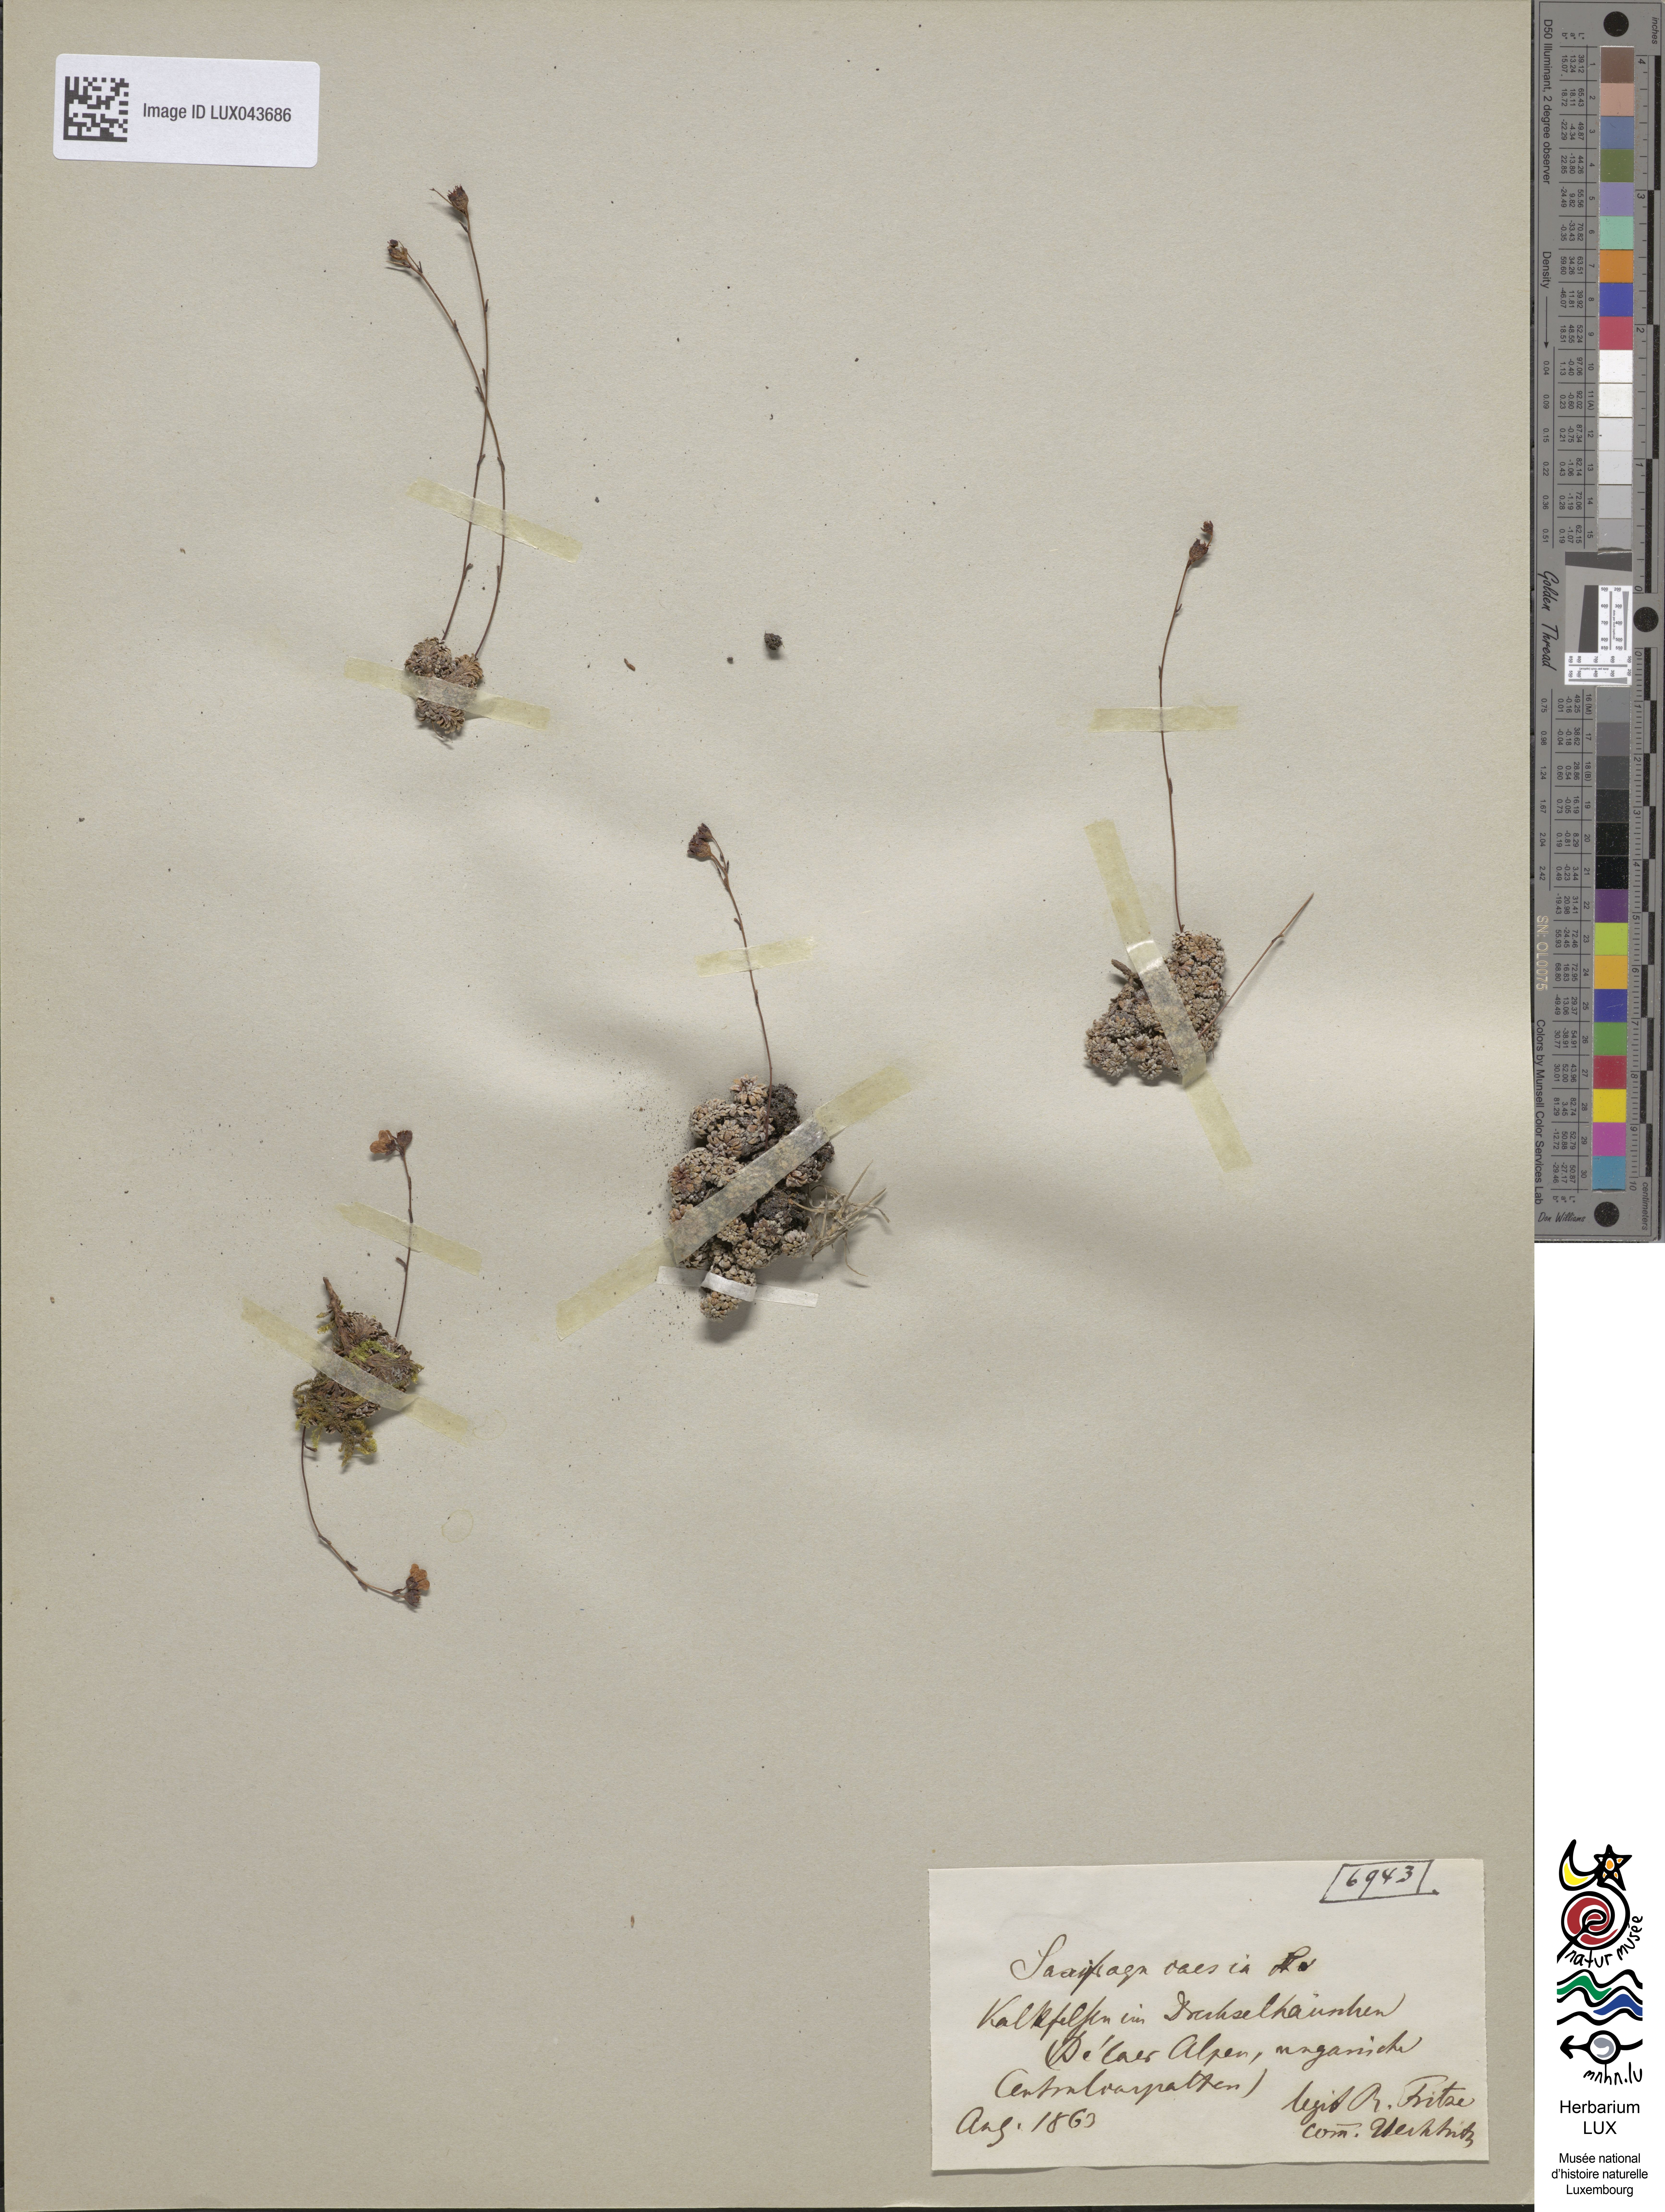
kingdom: Plantae
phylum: Tracheophyta
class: Magnoliopsida
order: Saxifragales
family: Saxifragaceae
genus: Saxifraga
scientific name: Saxifraga caesia
